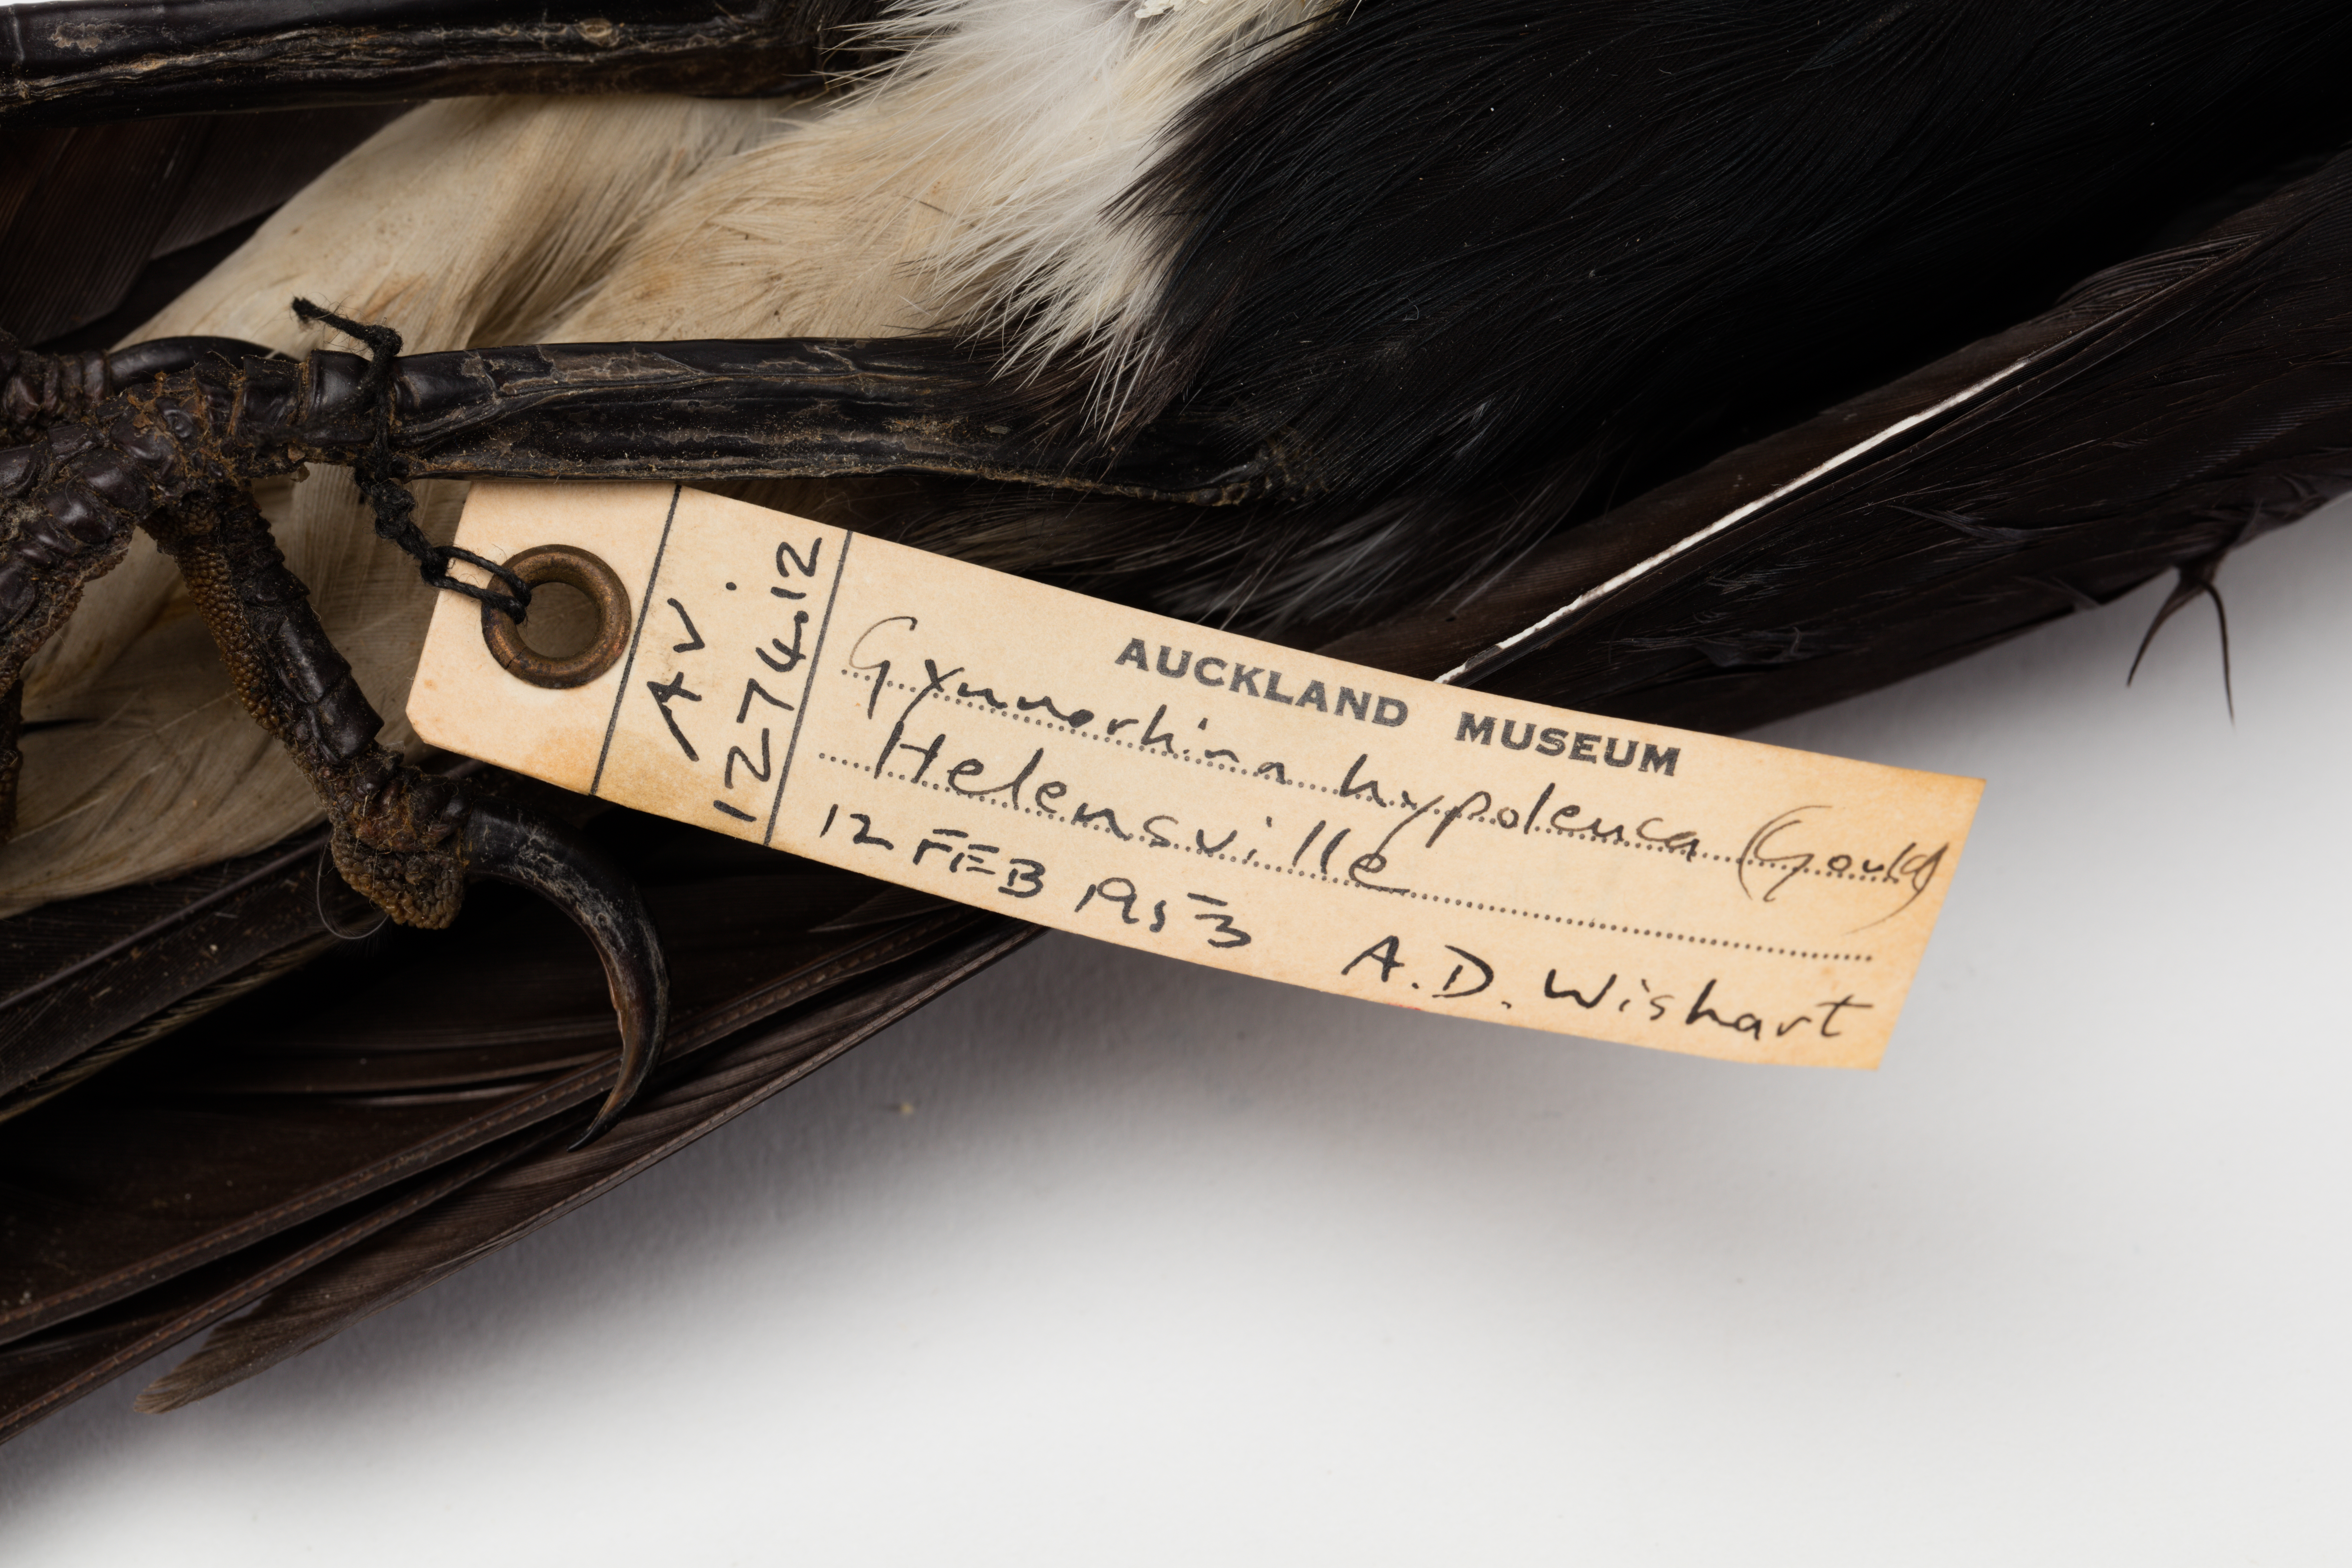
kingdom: Animalia
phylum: Chordata
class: Aves
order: Passeriformes
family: Cracticidae
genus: Gymnorhina
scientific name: Gymnorhina tibicen
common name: Australian magpie
